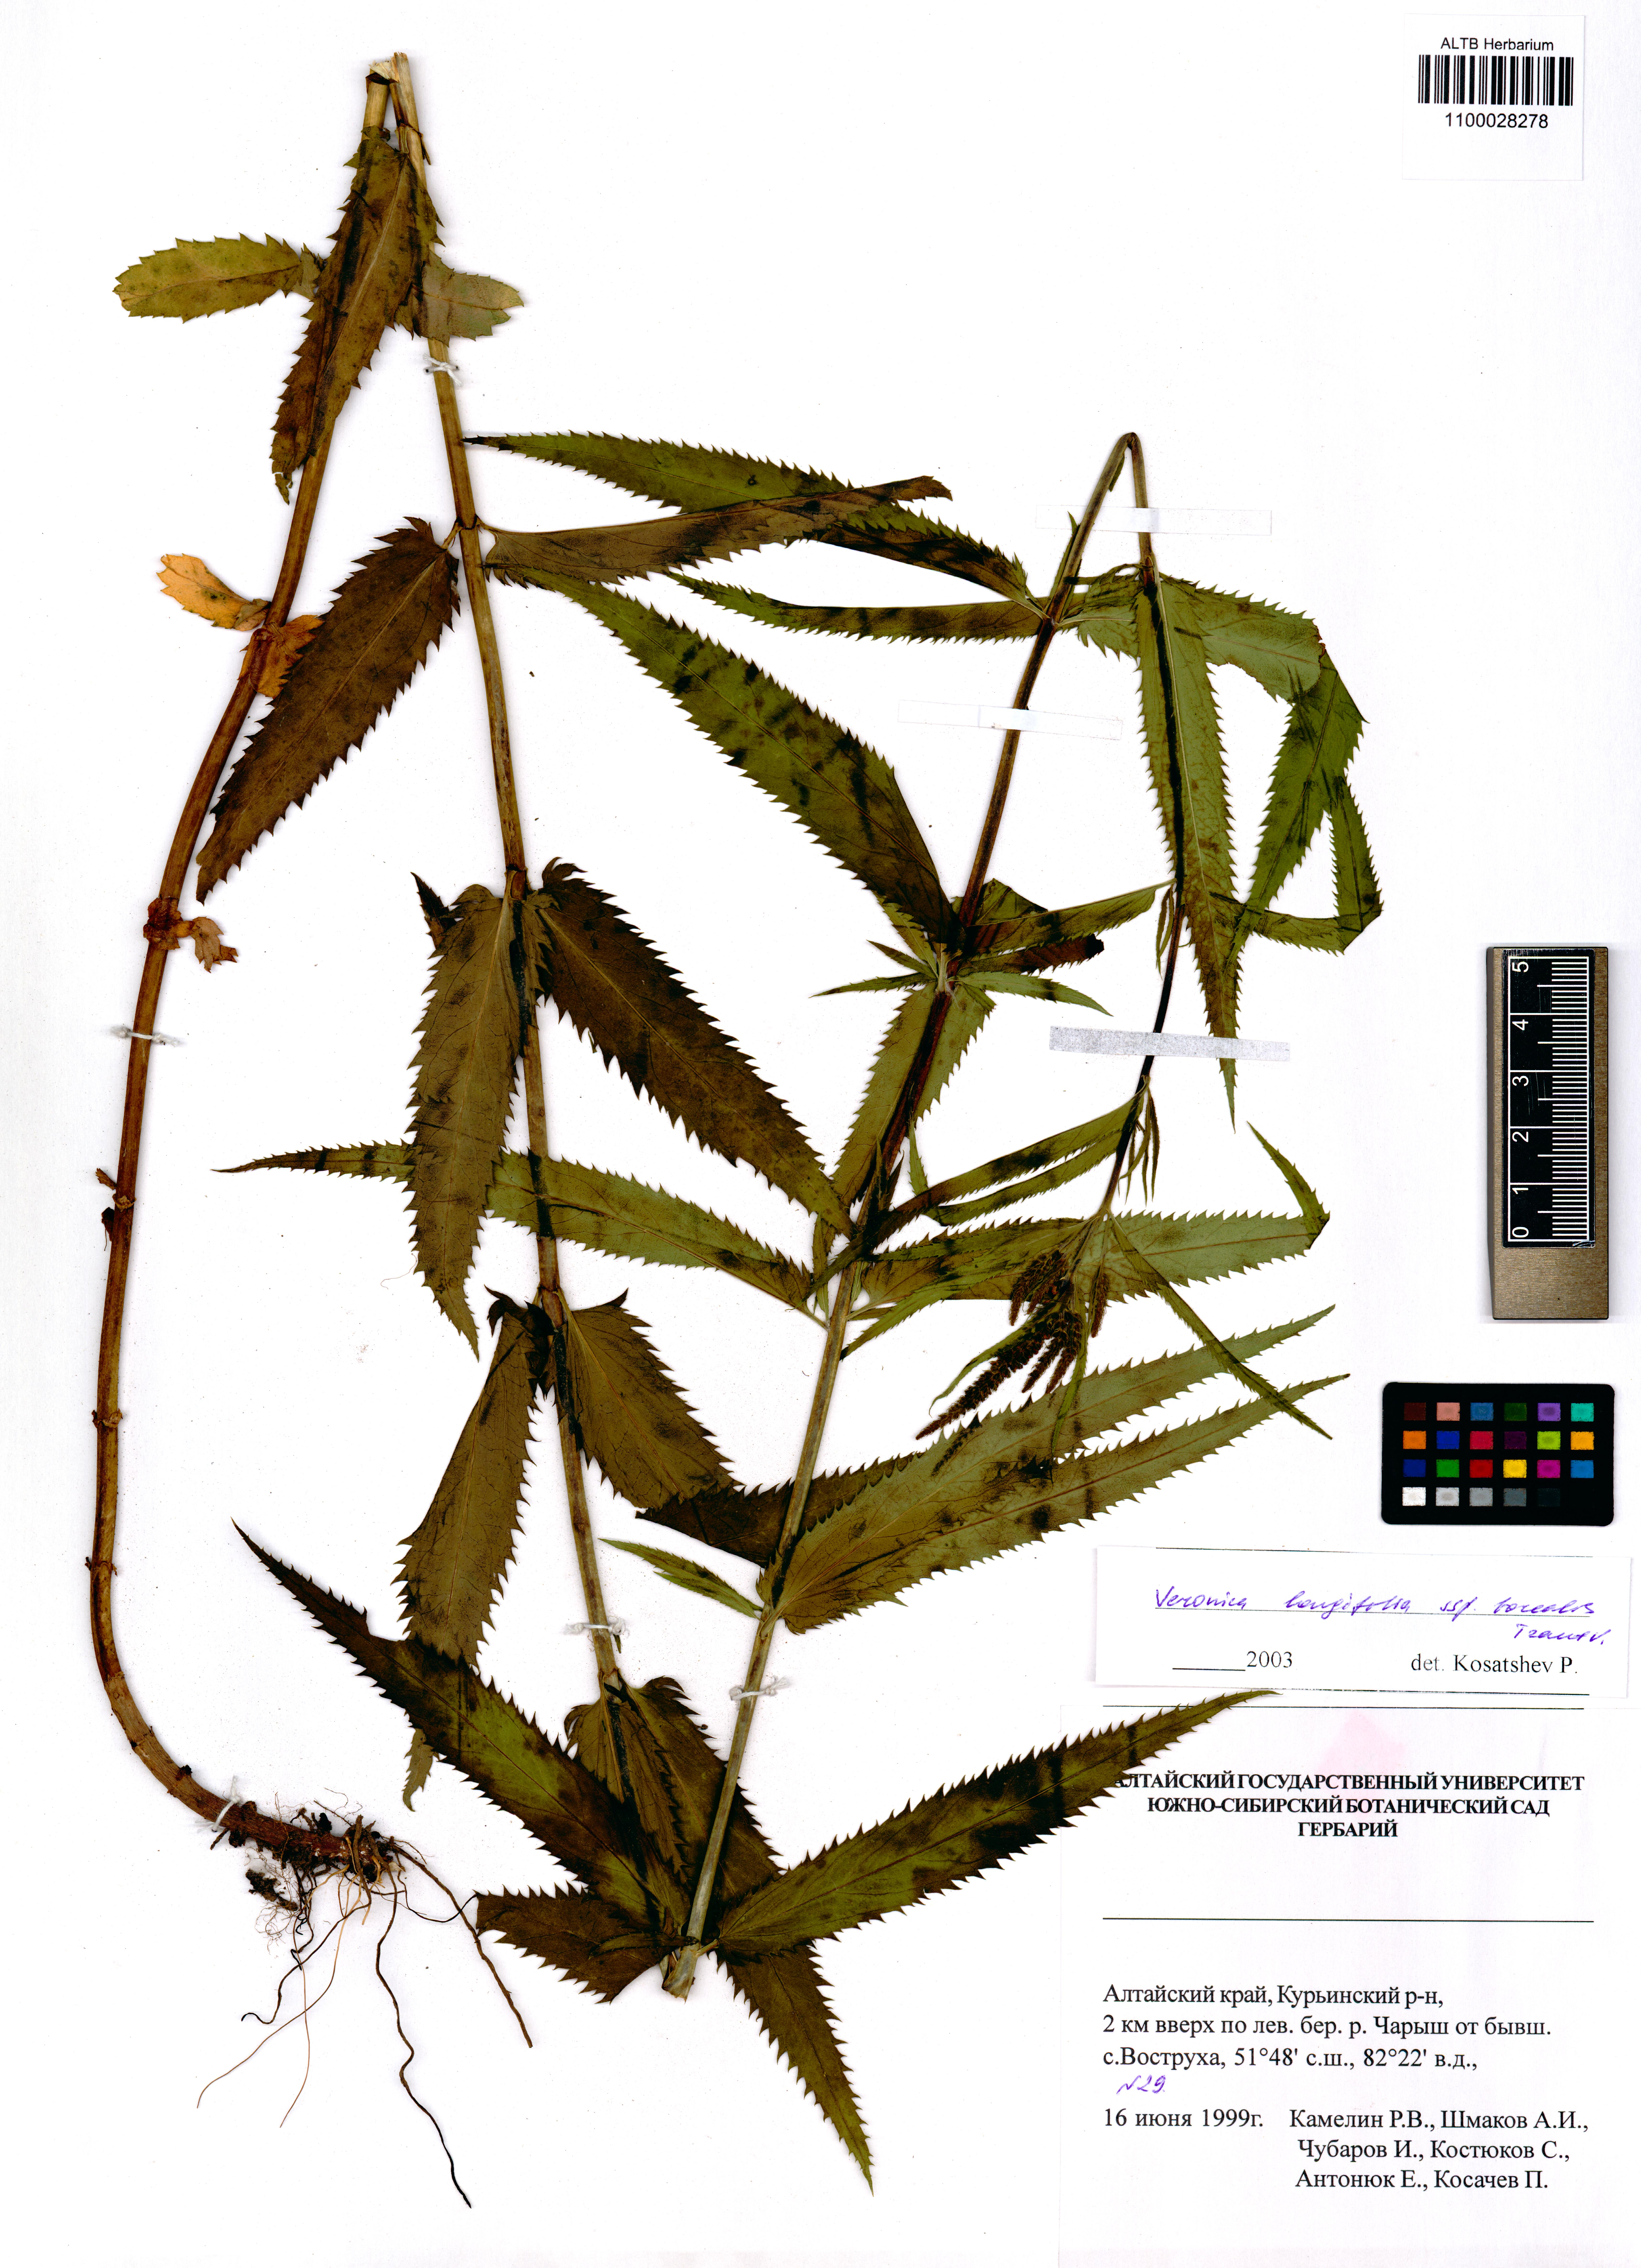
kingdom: Plantae
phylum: Tracheophyta
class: Magnoliopsida
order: Lamiales
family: Plantaginaceae
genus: Veronica
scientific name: Veronica longifolia
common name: Garden speedwell
